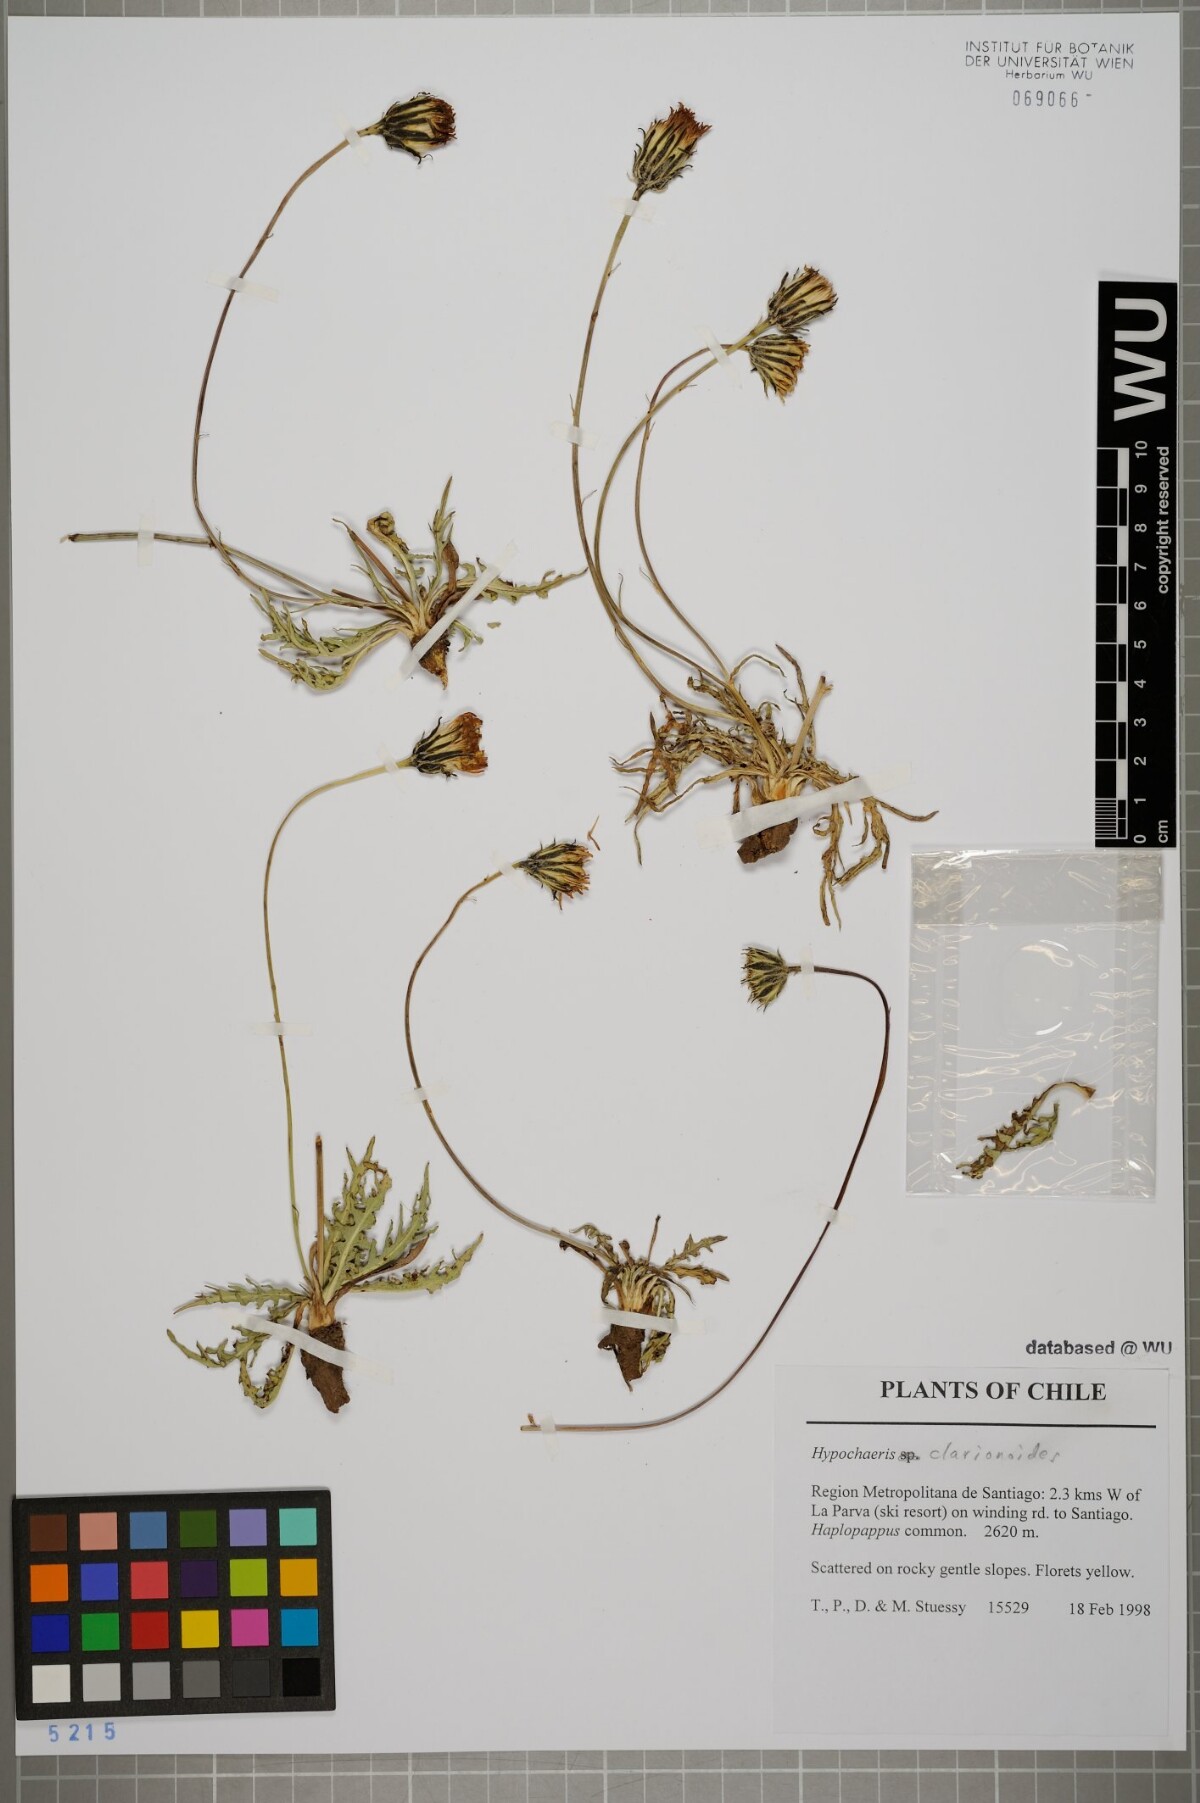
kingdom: Plantae
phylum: Tracheophyta
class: Magnoliopsida
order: Asterales
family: Asteraceae
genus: Hypochaeris
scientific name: Hypochaeris clarionoides
